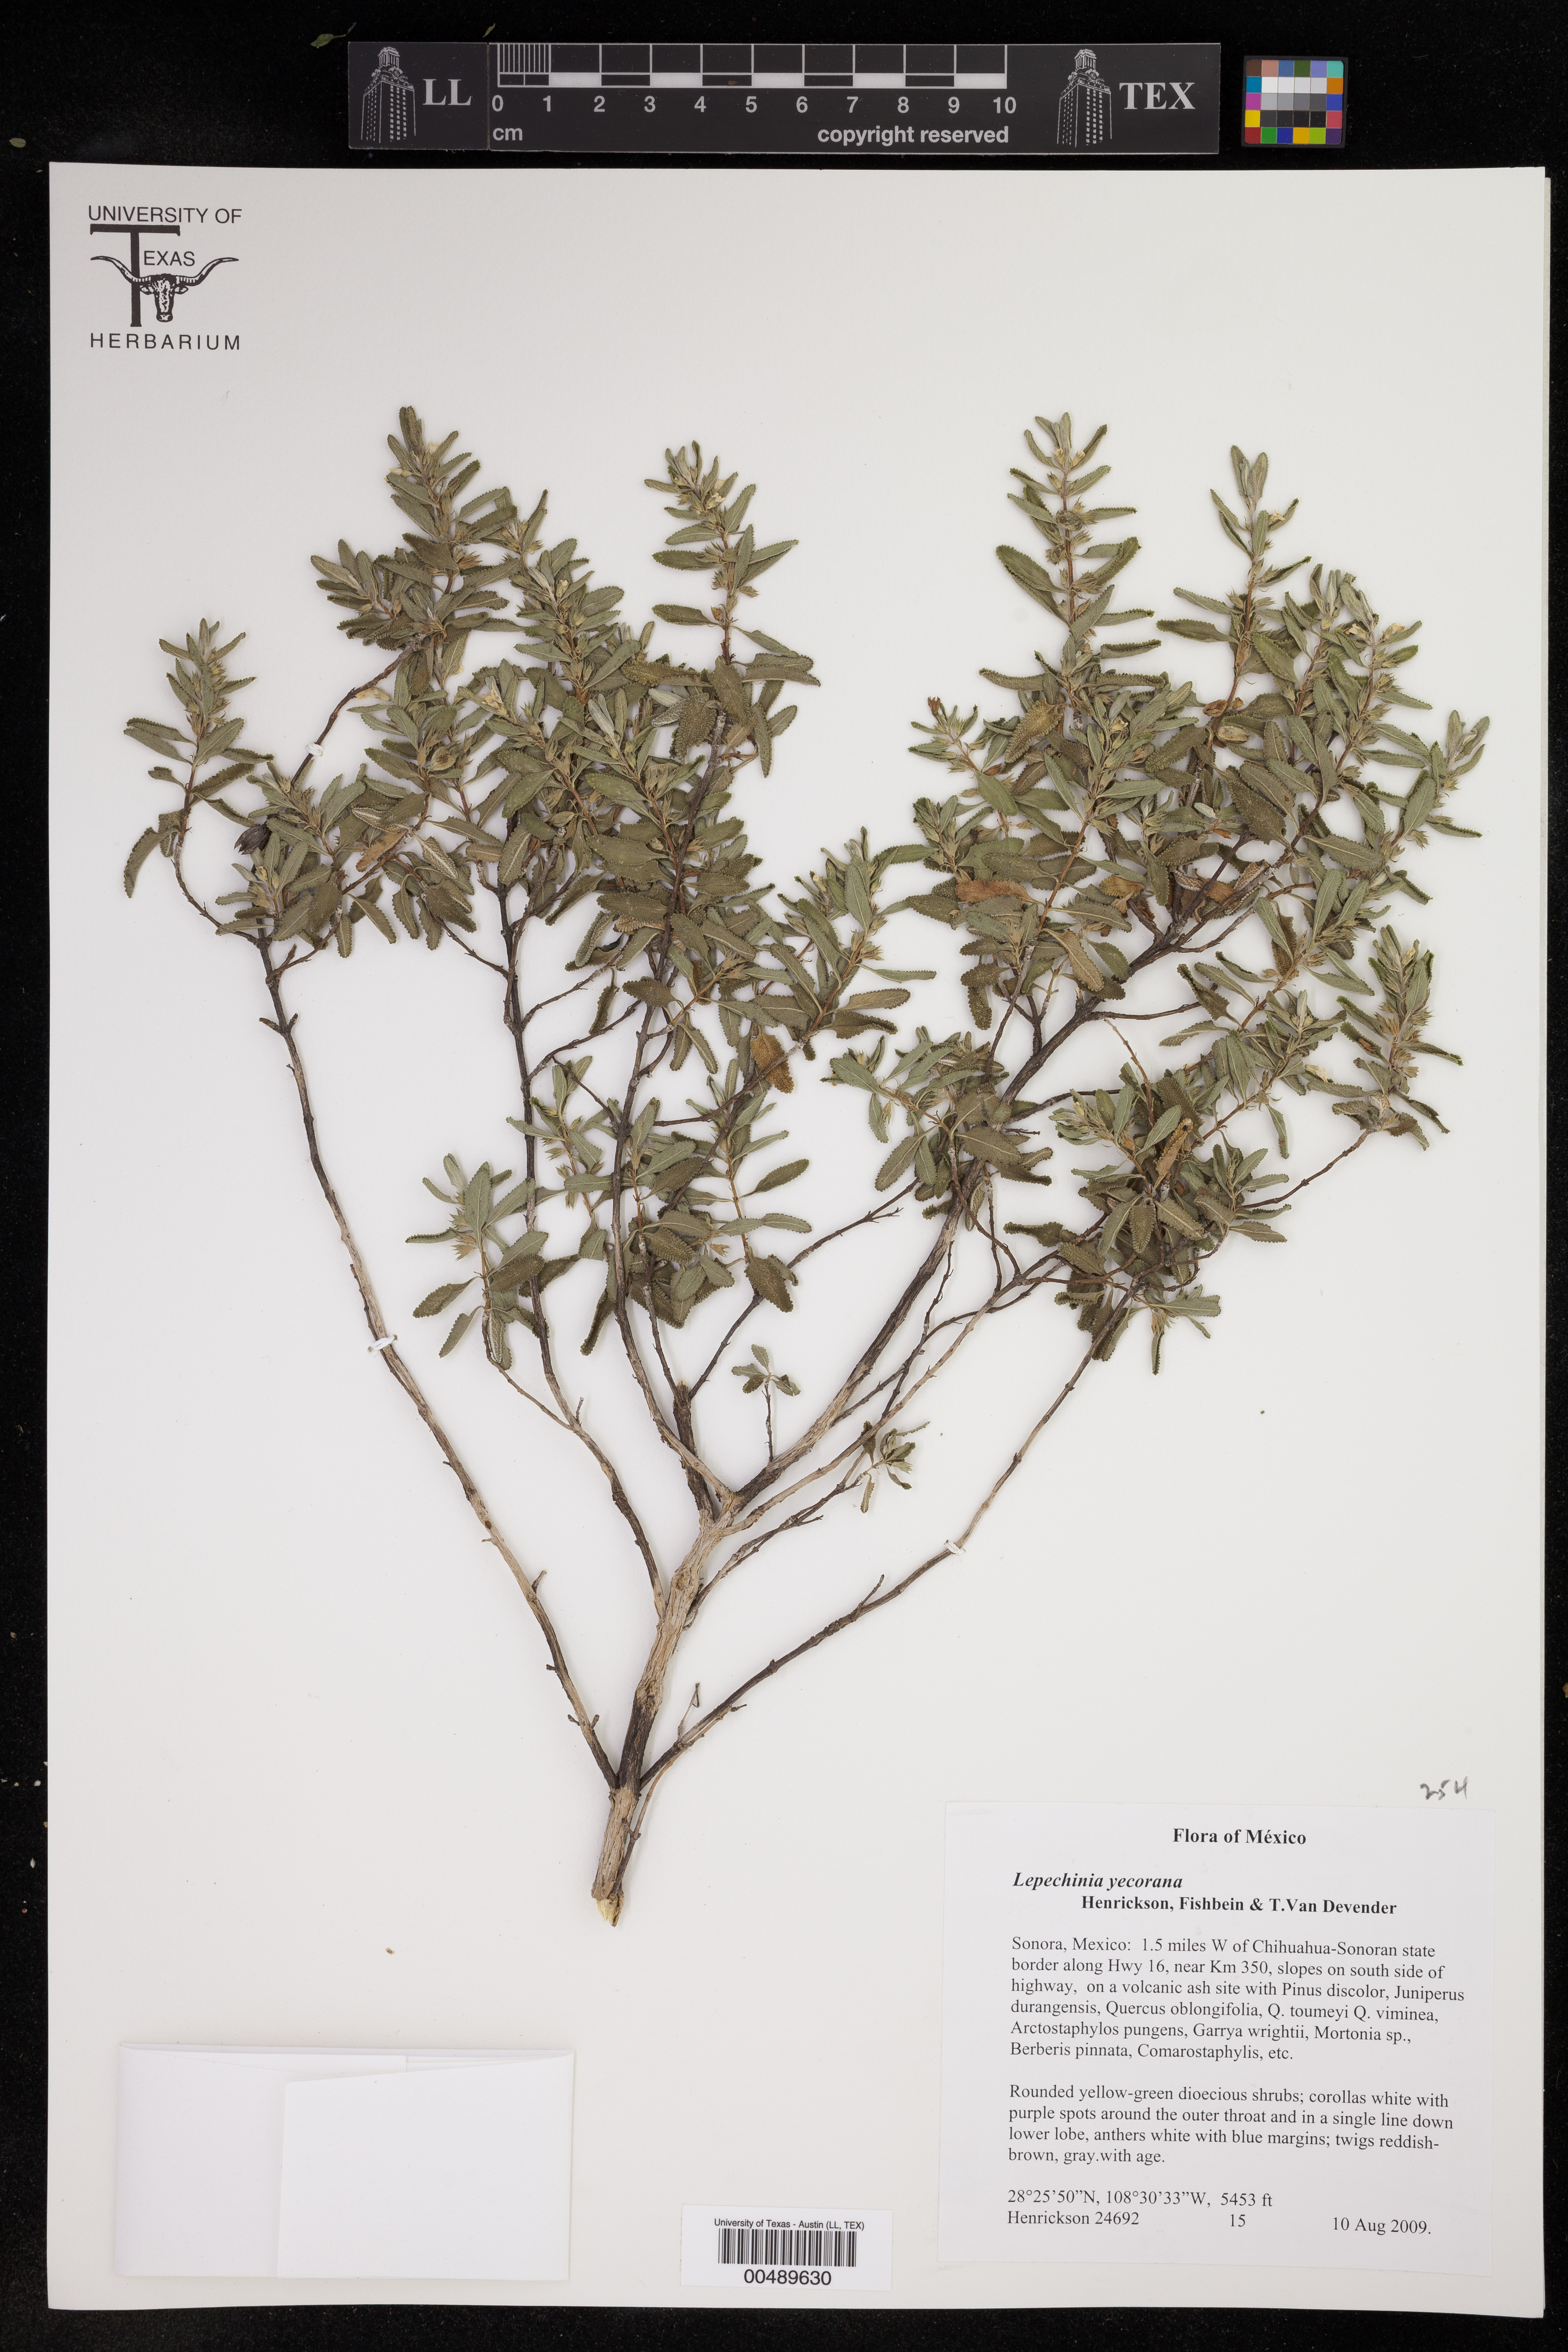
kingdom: Plantae
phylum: Tracheophyta
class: Magnoliopsida
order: Lamiales
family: Lamiaceae
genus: Lepechinia
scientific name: Lepechinia yecorana
